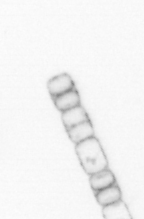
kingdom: Chromista
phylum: Ochrophyta
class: Bacillariophyceae
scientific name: Bacillariophyceae
